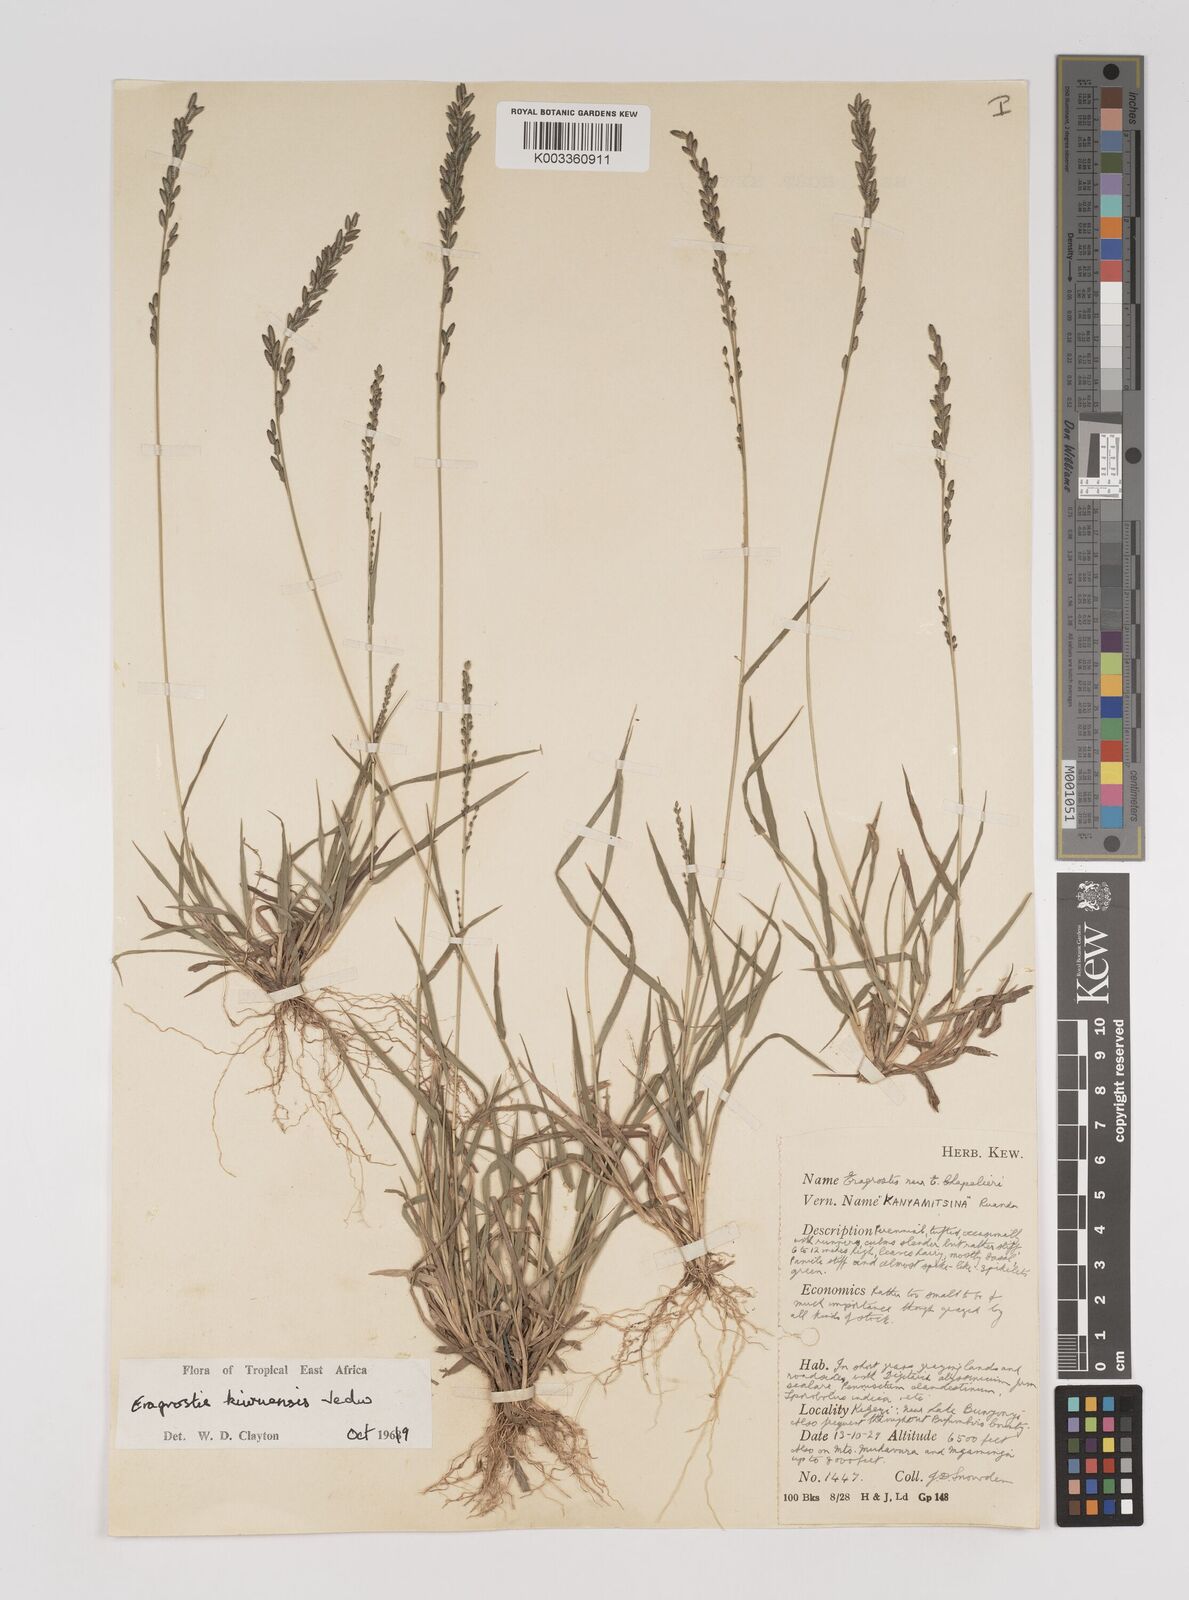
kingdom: Plantae
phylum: Tracheophyta
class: Liliopsida
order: Poales
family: Poaceae
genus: Eragrostis
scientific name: Eragrostis schweinfurthii
